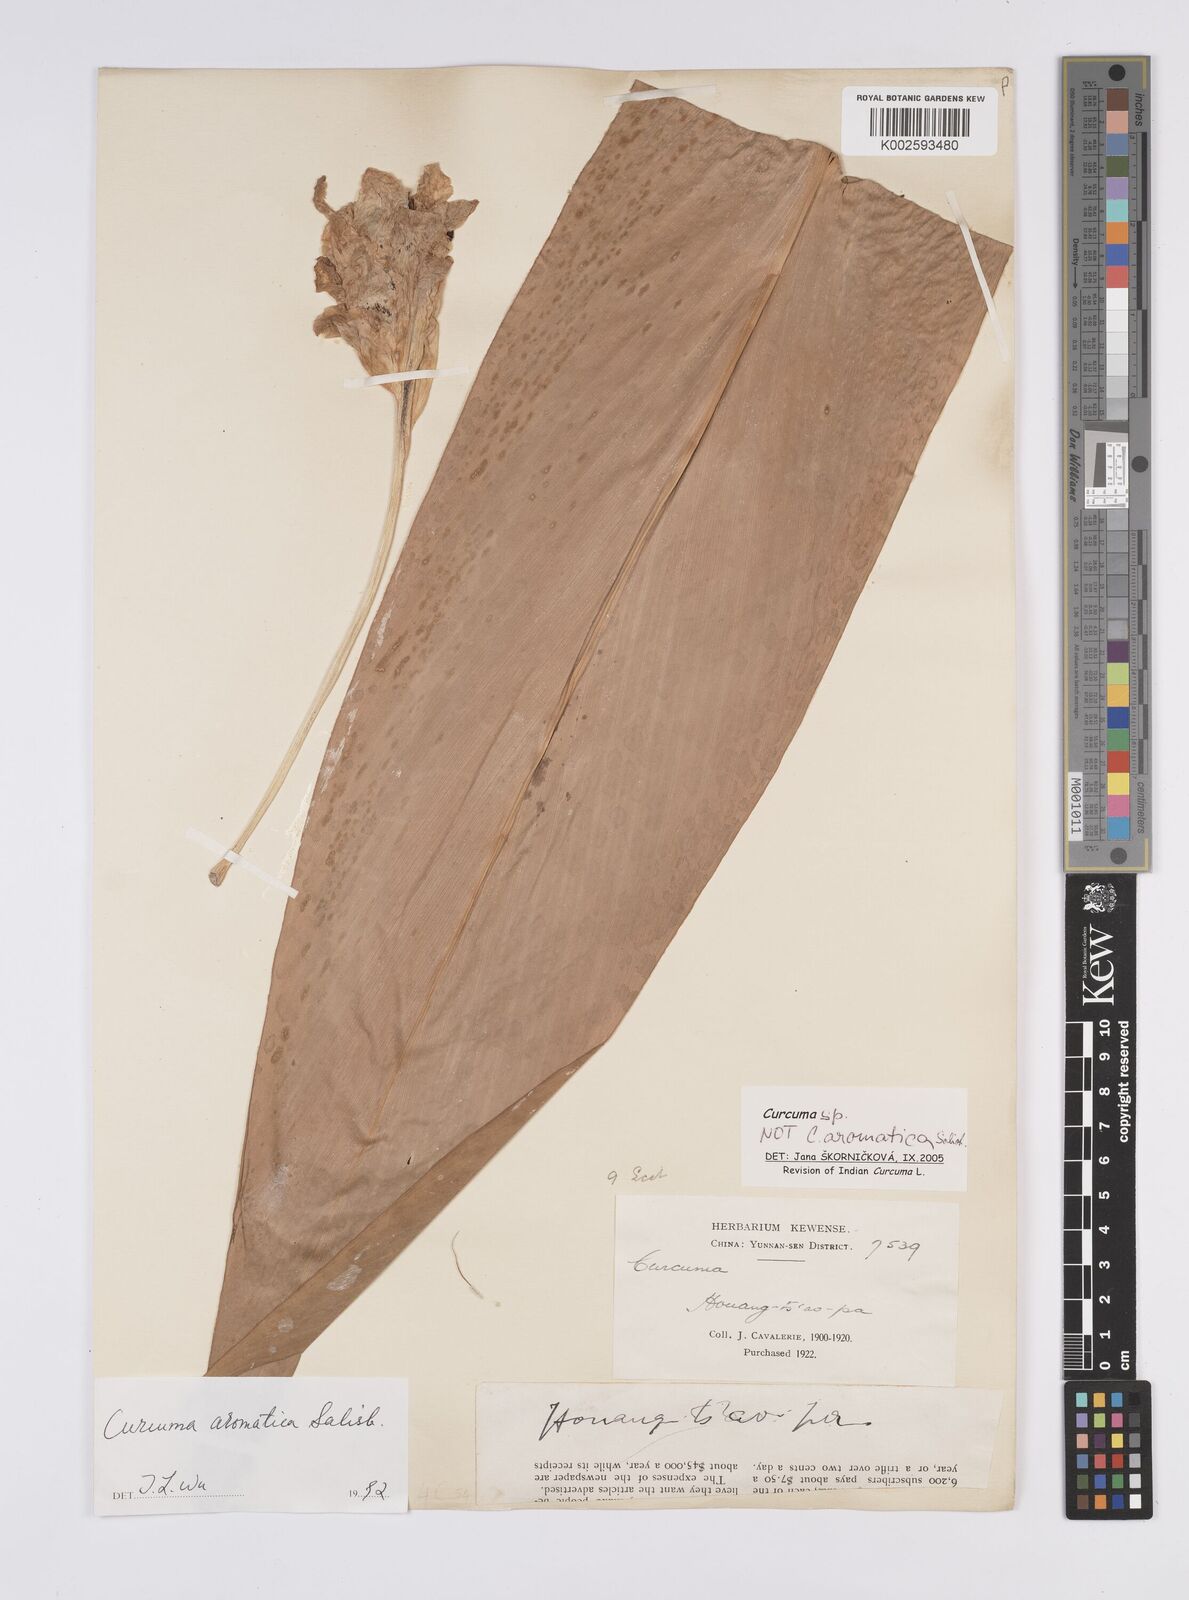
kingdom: Plantae
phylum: Tracheophyta
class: Liliopsida
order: Zingiberales
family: Zingiberaceae
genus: Curcuma
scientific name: Curcuma
